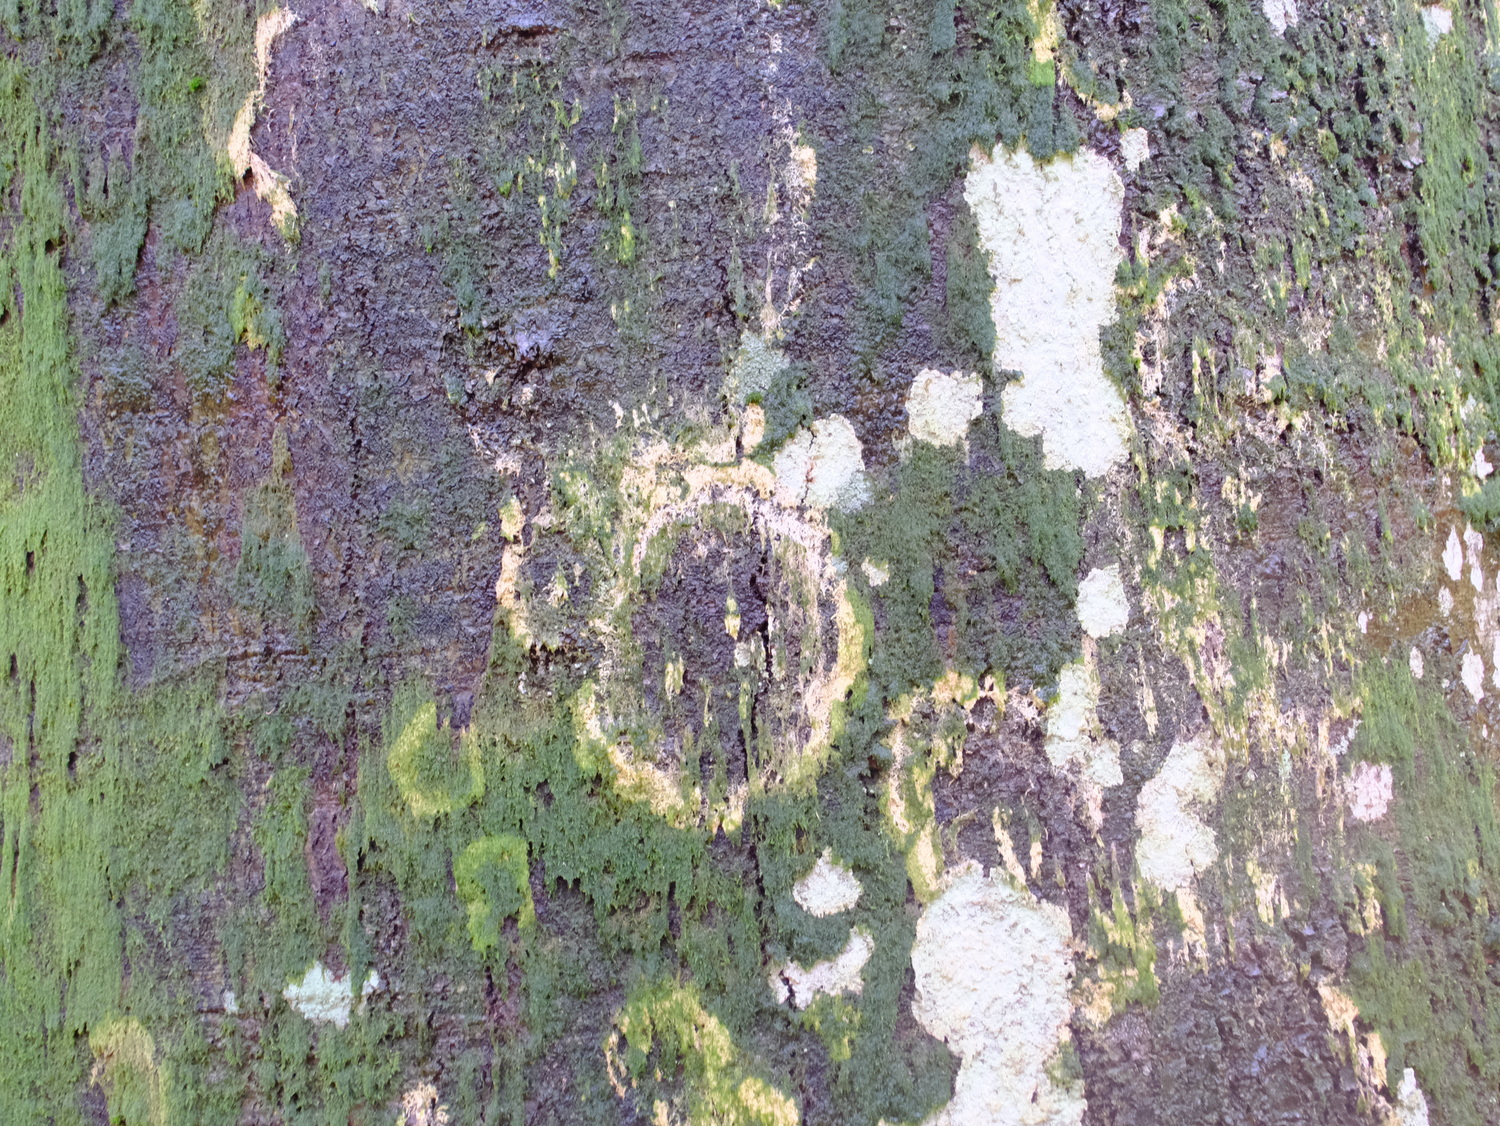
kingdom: Fungi
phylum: Basidiomycota
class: Agaricomycetes
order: Agaricales
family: Chromocyphellaceae
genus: Chromocyphella
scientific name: Chromocyphella muscicola
